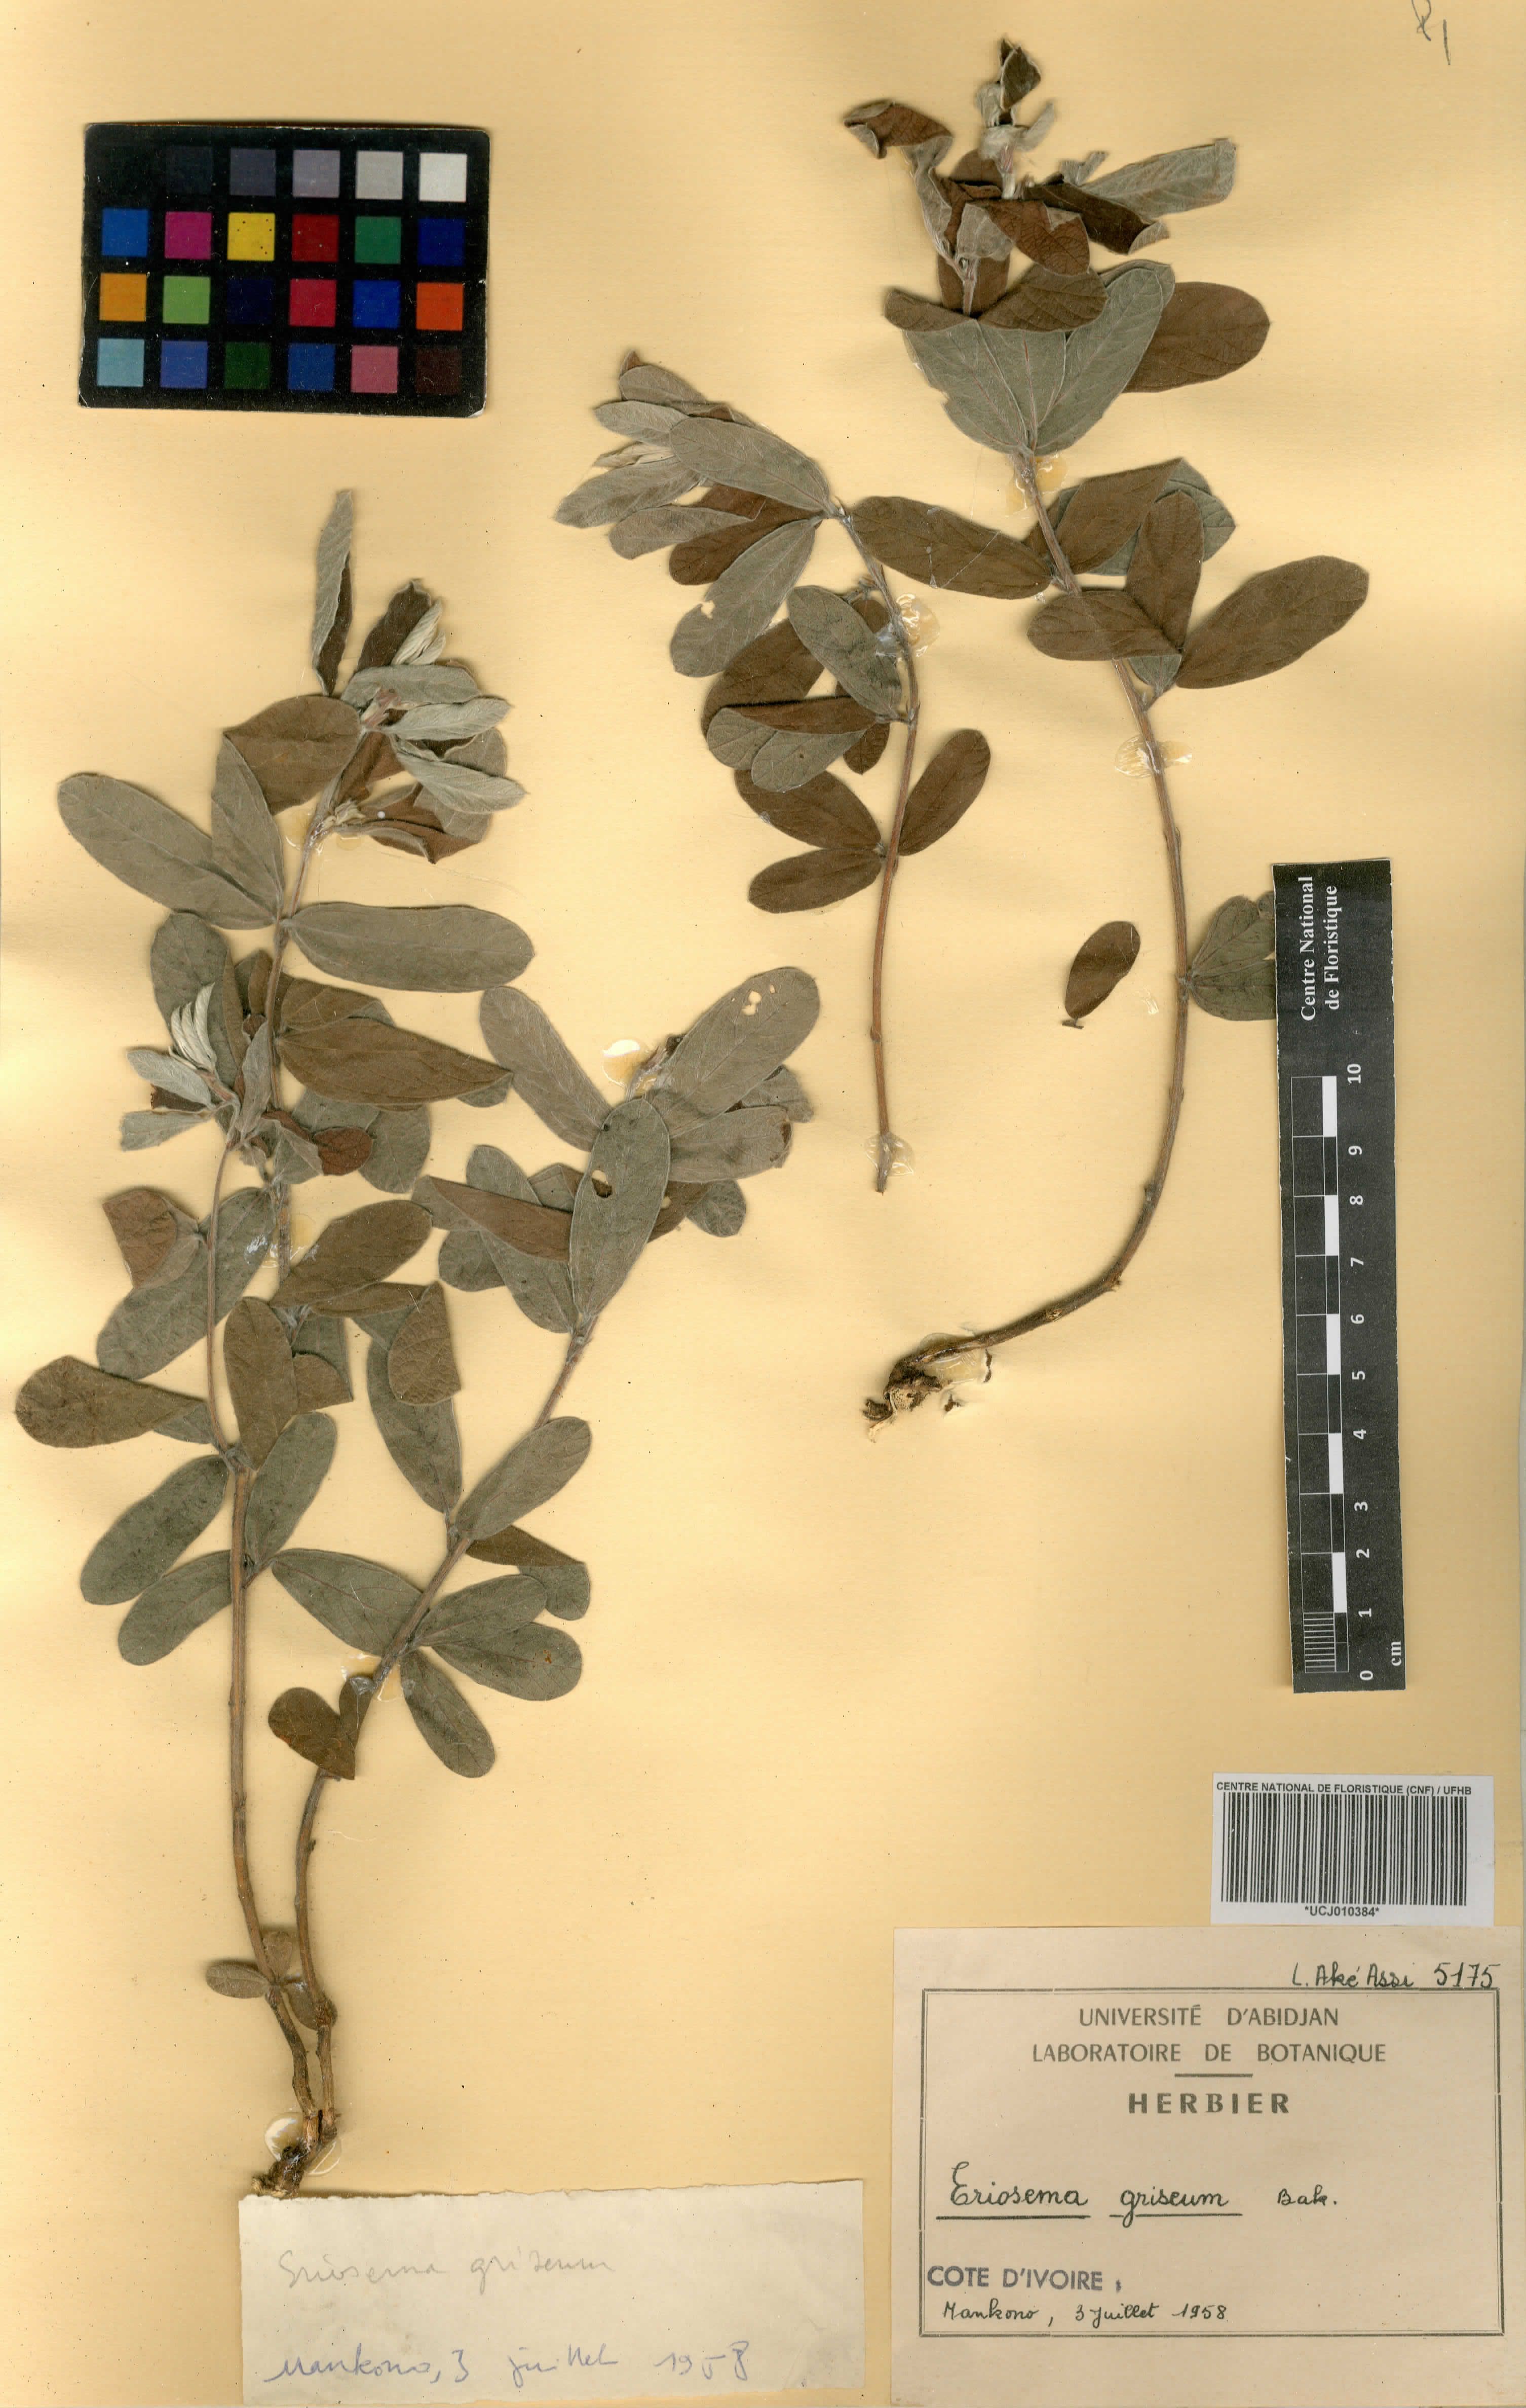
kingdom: Plantae
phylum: Tracheophyta
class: Magnoliopsida
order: Fabales
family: Fabaceae
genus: Eriosema
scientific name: Eriosema griseum
